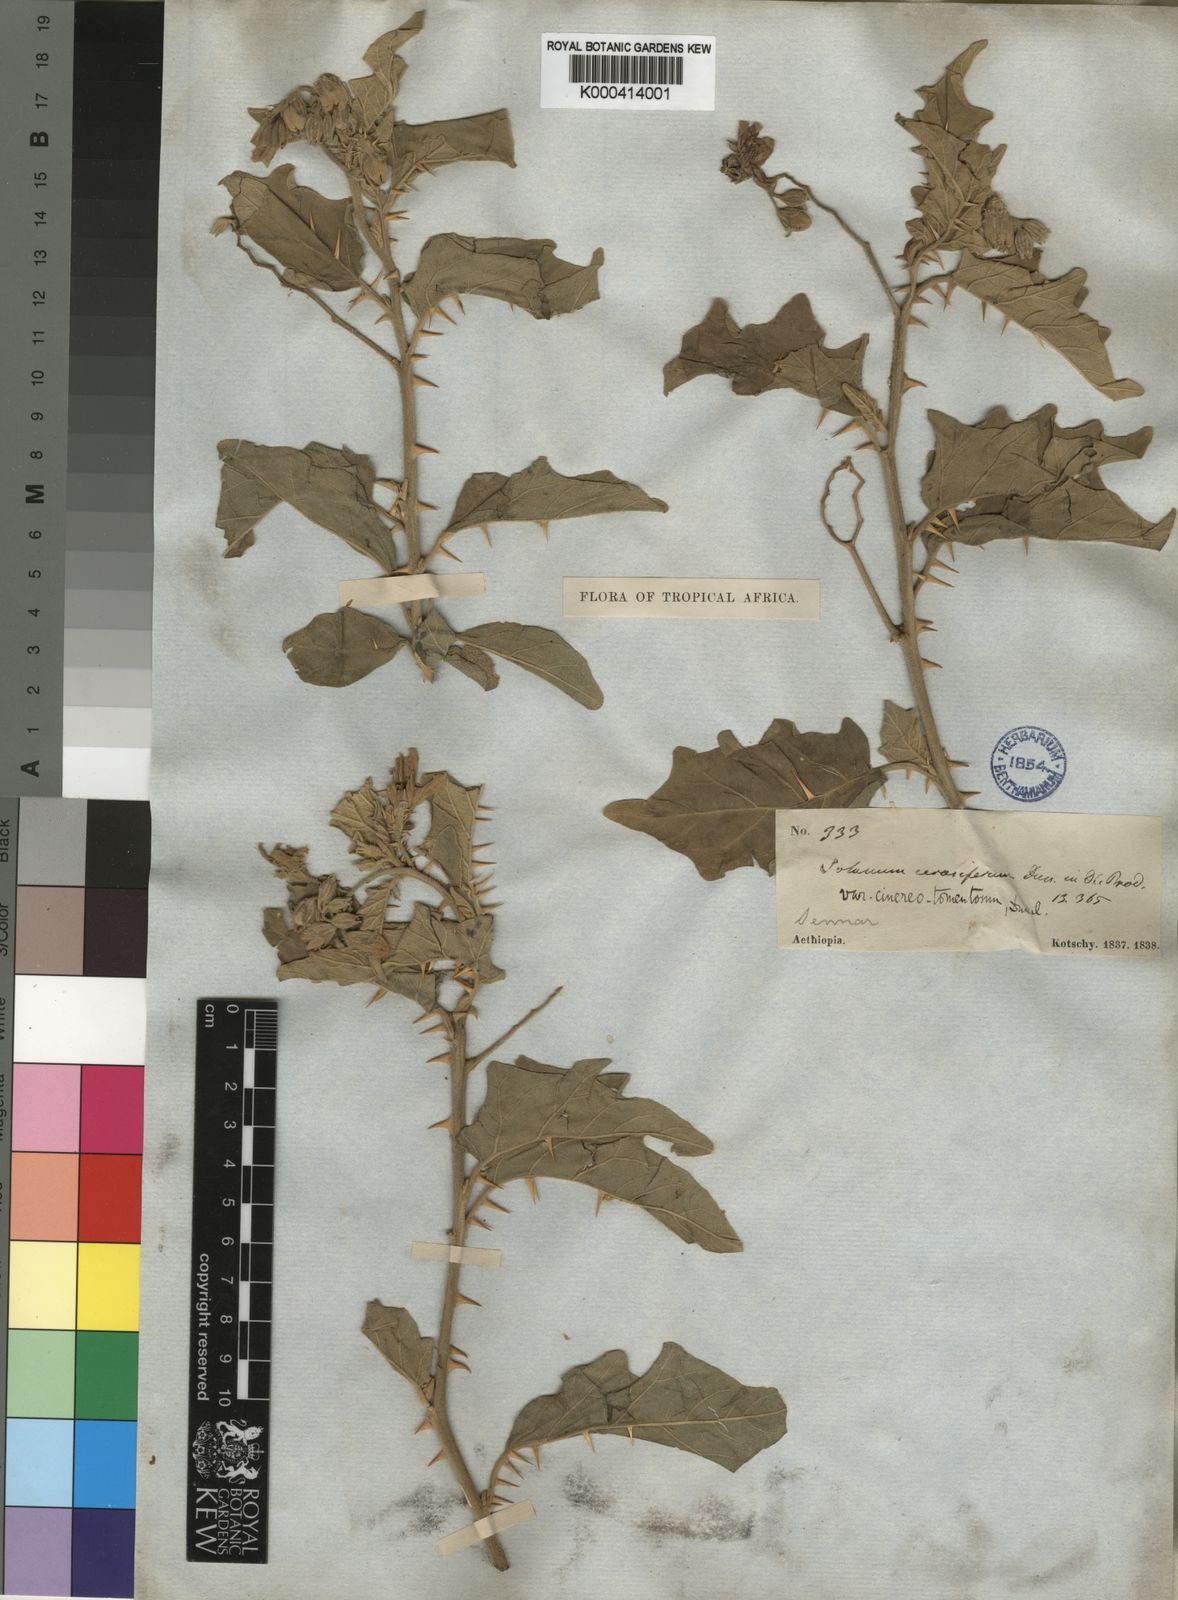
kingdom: Plantae
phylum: Tracheophyta
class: Magnoliopsida
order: Solanales
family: Solanaceae
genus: Solanum
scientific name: Solanum incanum
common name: Bitter apple
